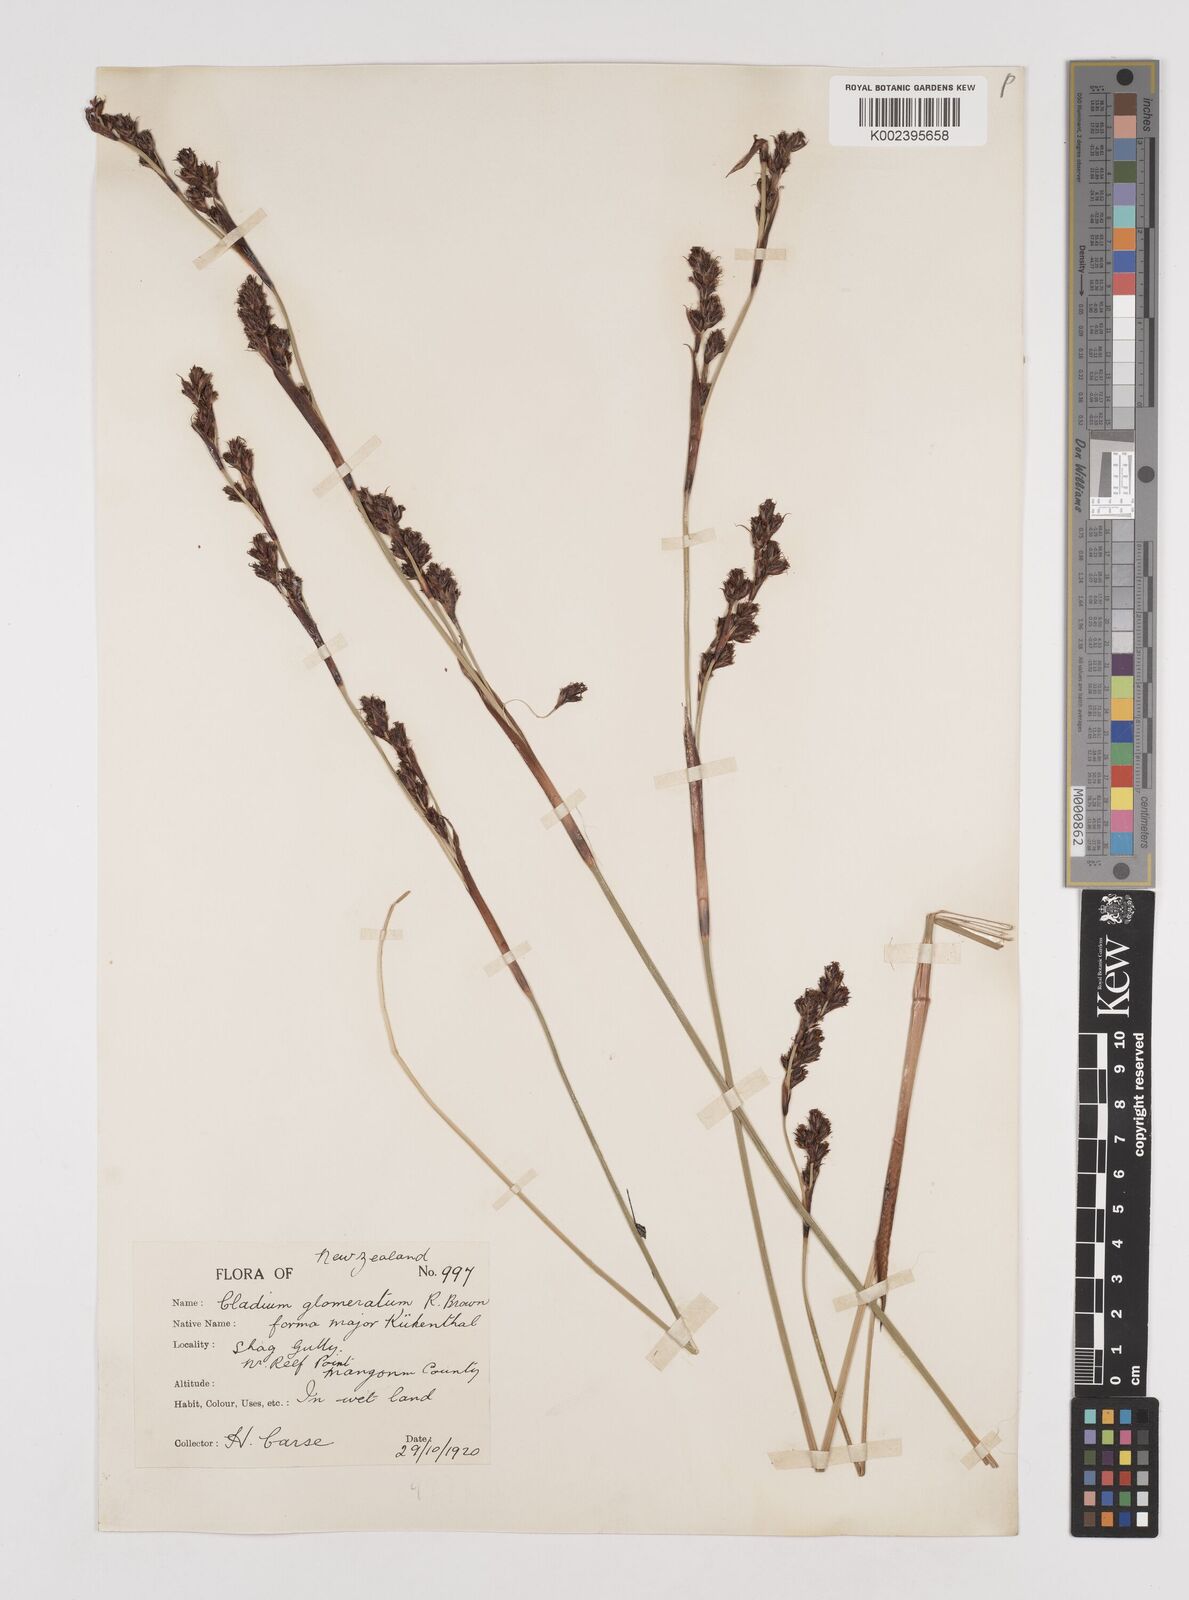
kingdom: Plantae
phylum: Tracheophyta
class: Liliopsida
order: Poales
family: Cyperaceae
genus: Machaerina
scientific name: Machaerina rubiginosa
